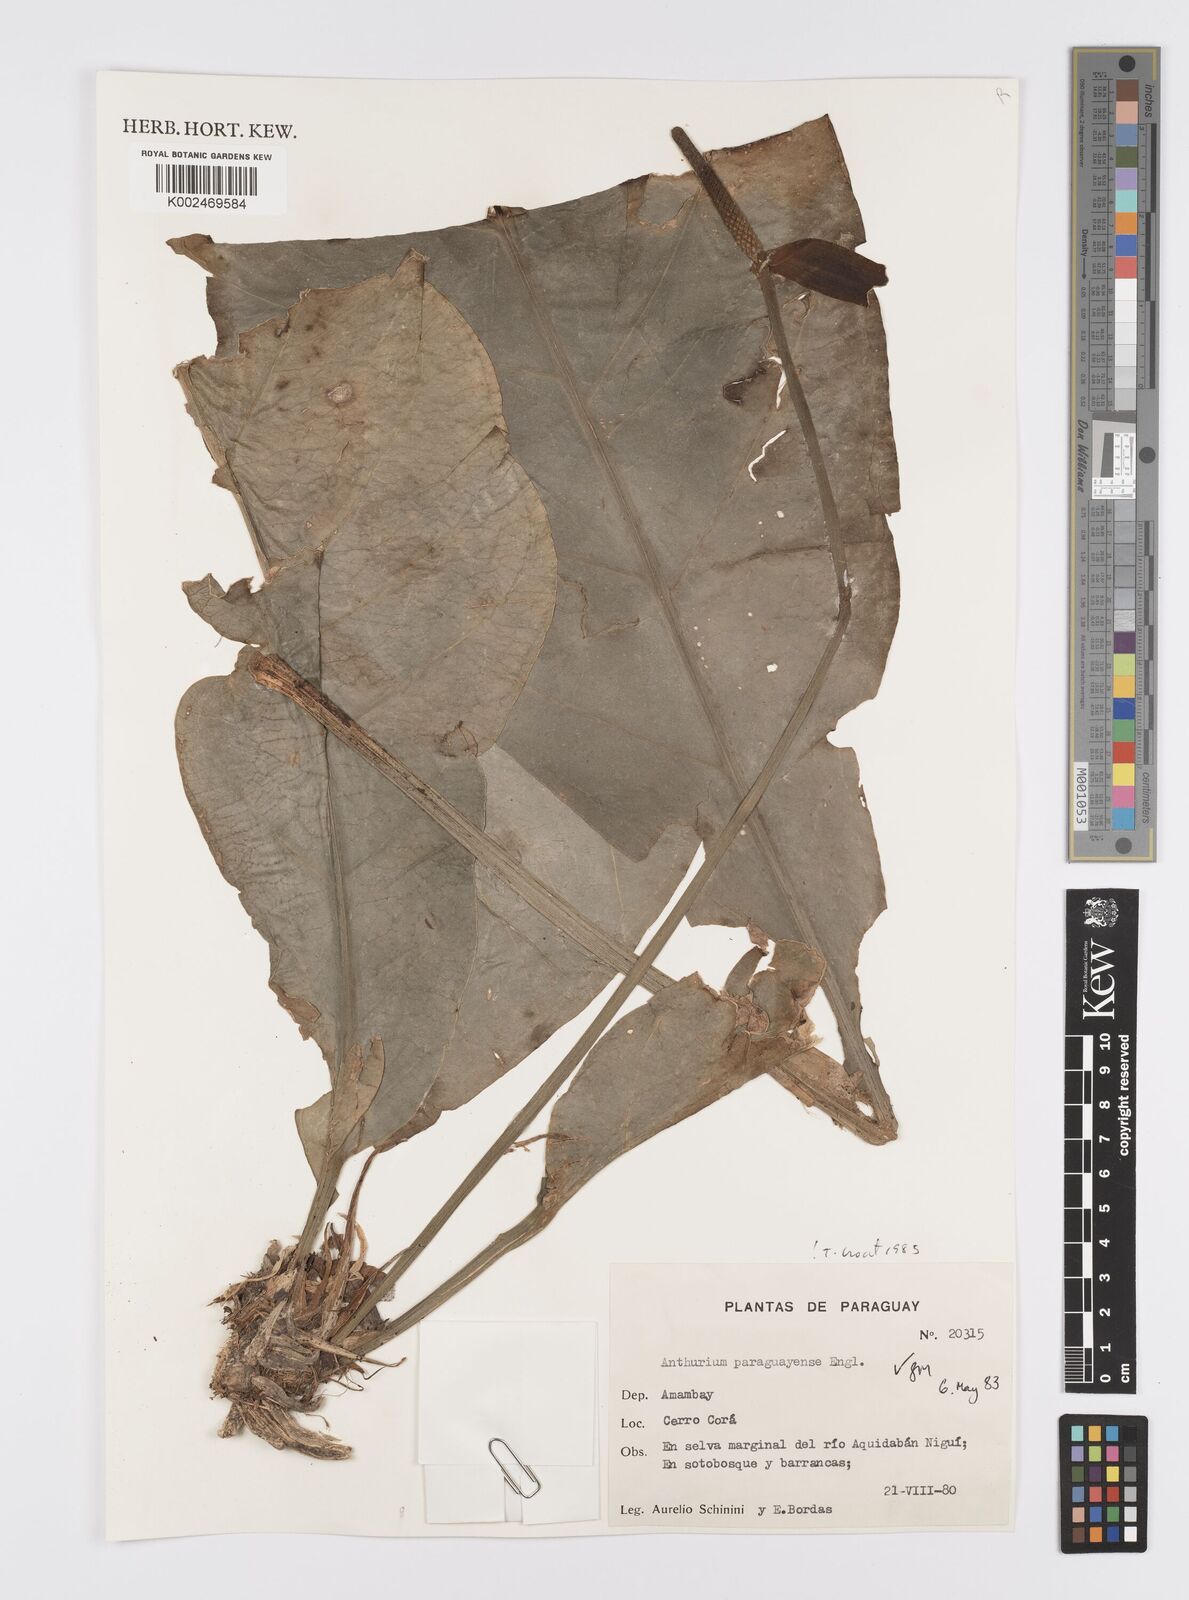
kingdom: Plantae
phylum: Tracheophyta
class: Liliopsida
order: Alismatales
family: Araceae
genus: Anthurium
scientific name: Anthurium paraguayense
